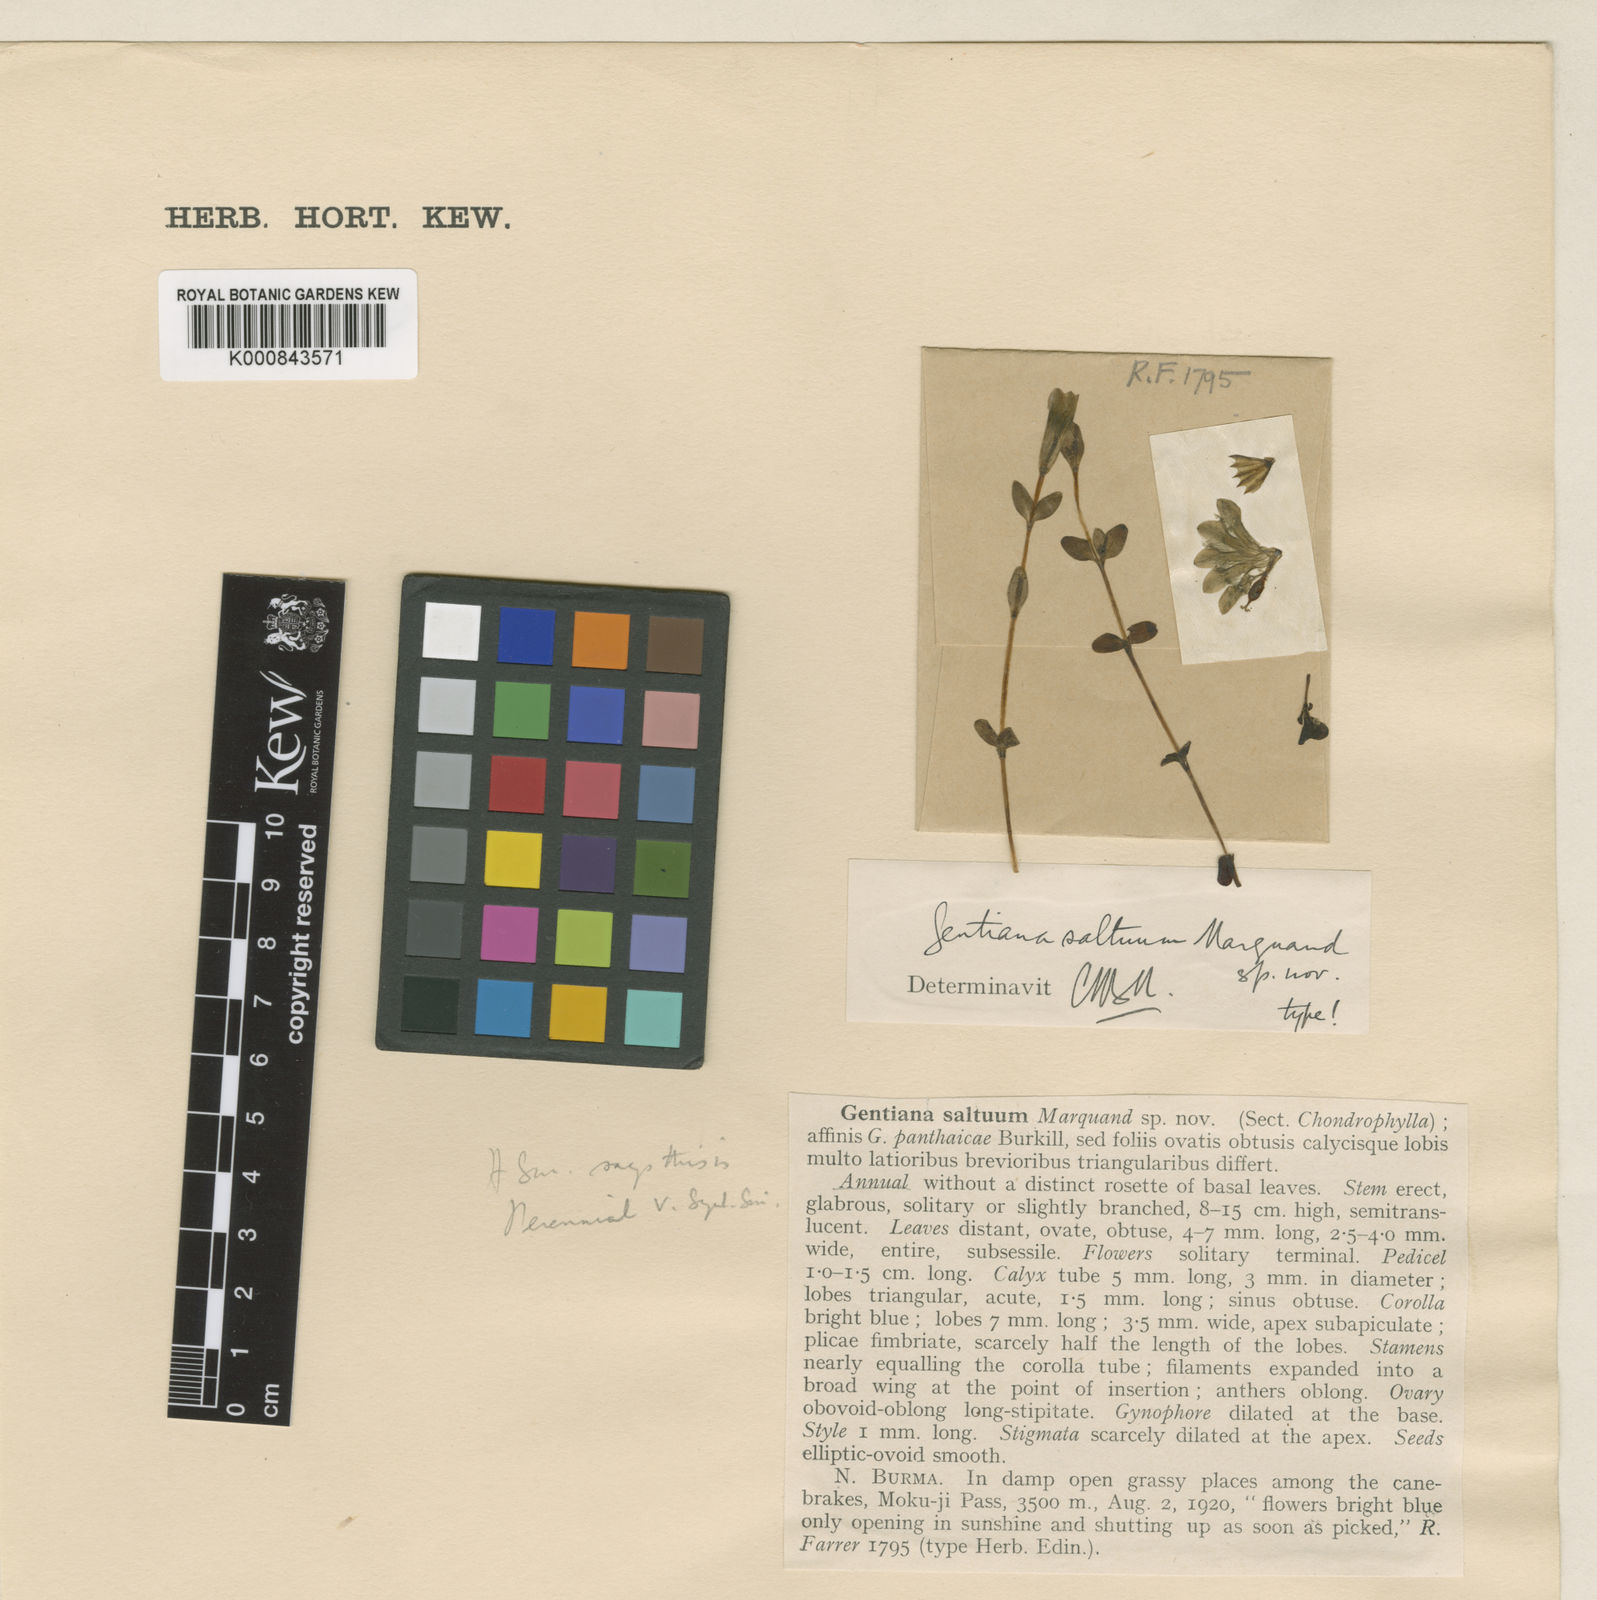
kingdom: Plantae
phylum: Tracheophyta
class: Magnoliopsida
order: Gentianales
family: Gentianaceae
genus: Gentiana
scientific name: Gentiana saltuum
